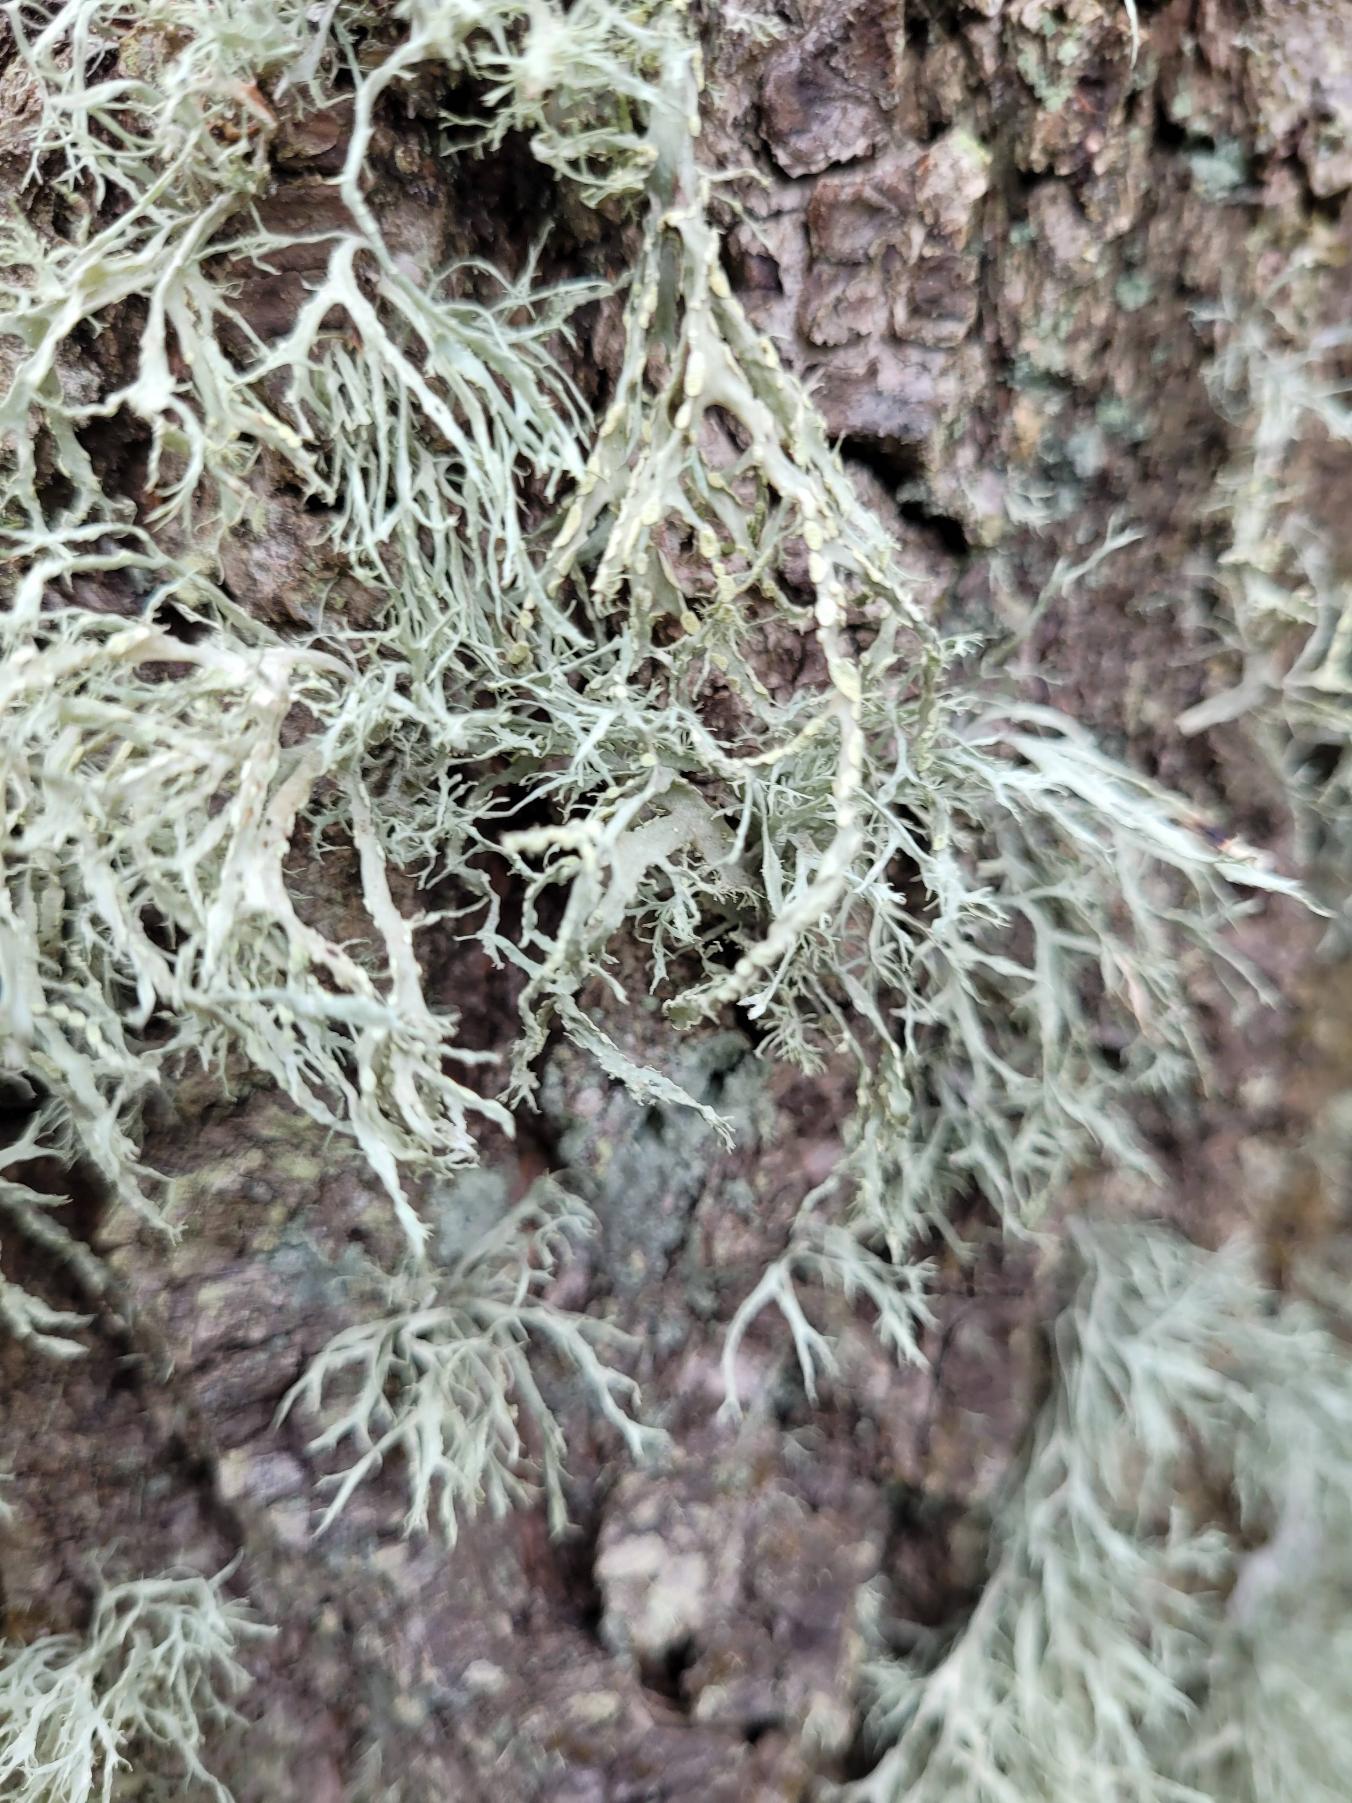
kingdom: Fungi
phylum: Ascomycota
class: Lecanoromycetes
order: Lecanorales
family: Ramalinaceae
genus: Ramalina
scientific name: Ramalina farinacea
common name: Melet grenlav
